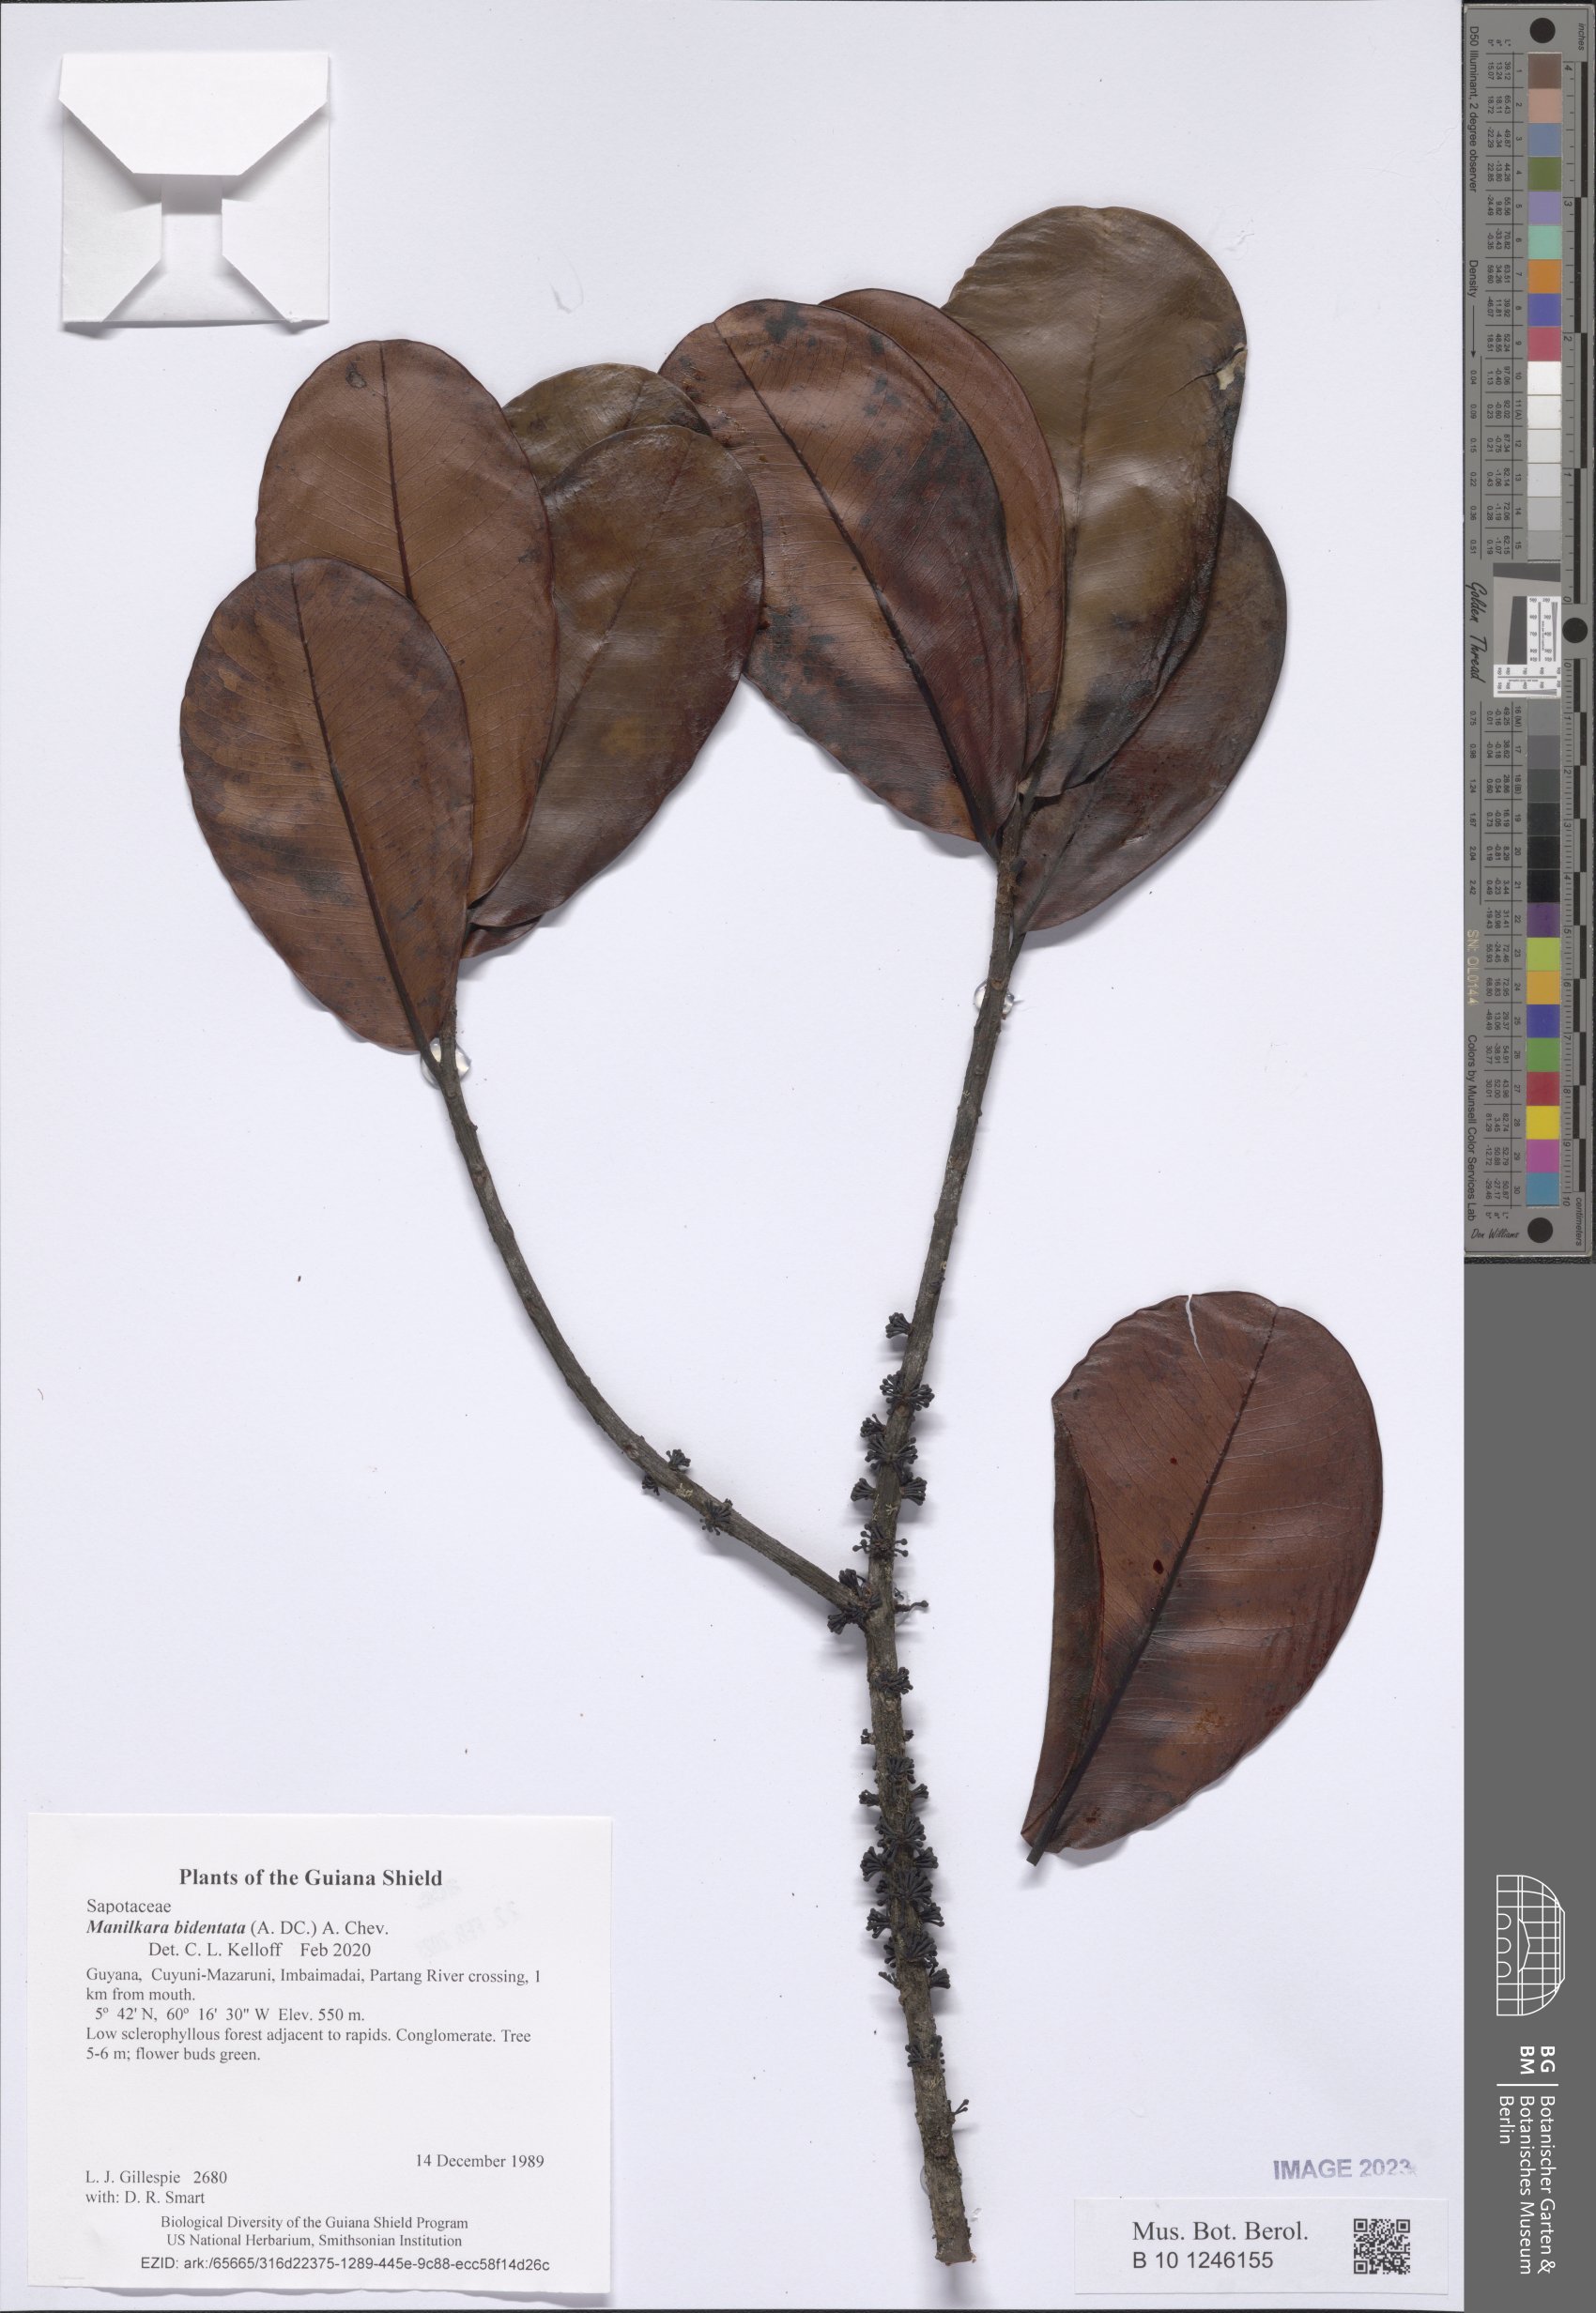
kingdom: Plantae
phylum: Tracheophyta
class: Magnoliopsida
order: Ericales
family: Sapotaceae
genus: Manilkara
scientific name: Manilkara bidentata
